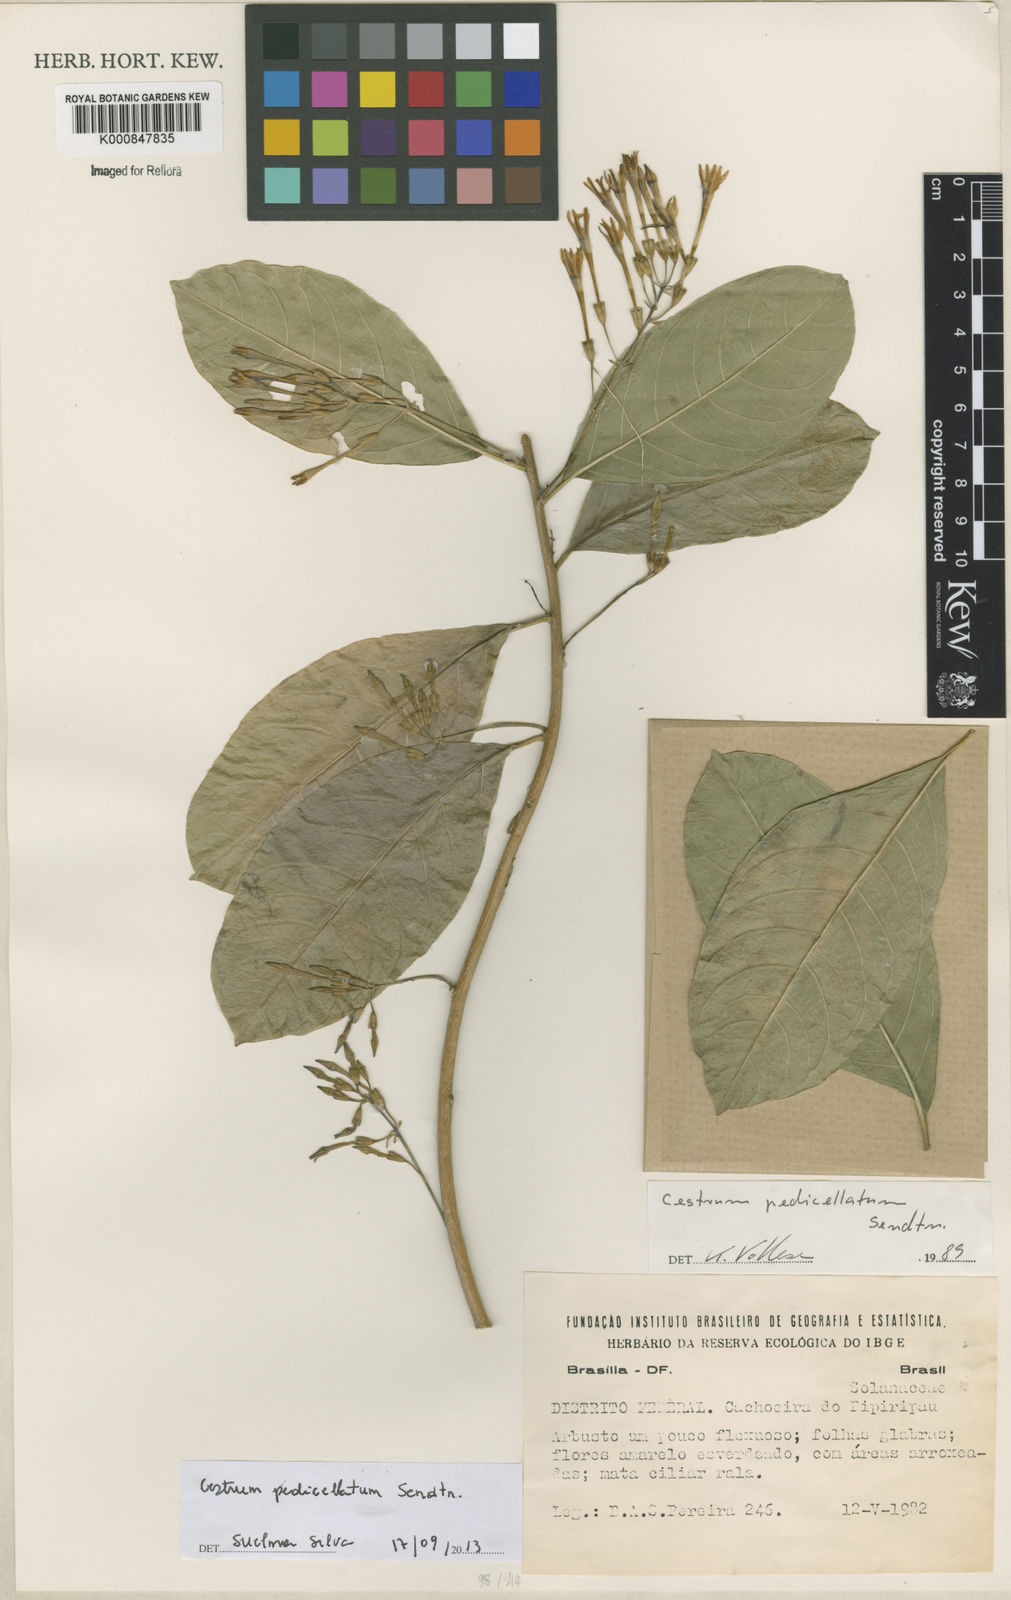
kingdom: Plantae
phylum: Tracheophyta
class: Magnoliopsida
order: Solanales
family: Solanaceae
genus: Cestrum
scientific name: Cestrum pedicellatum
